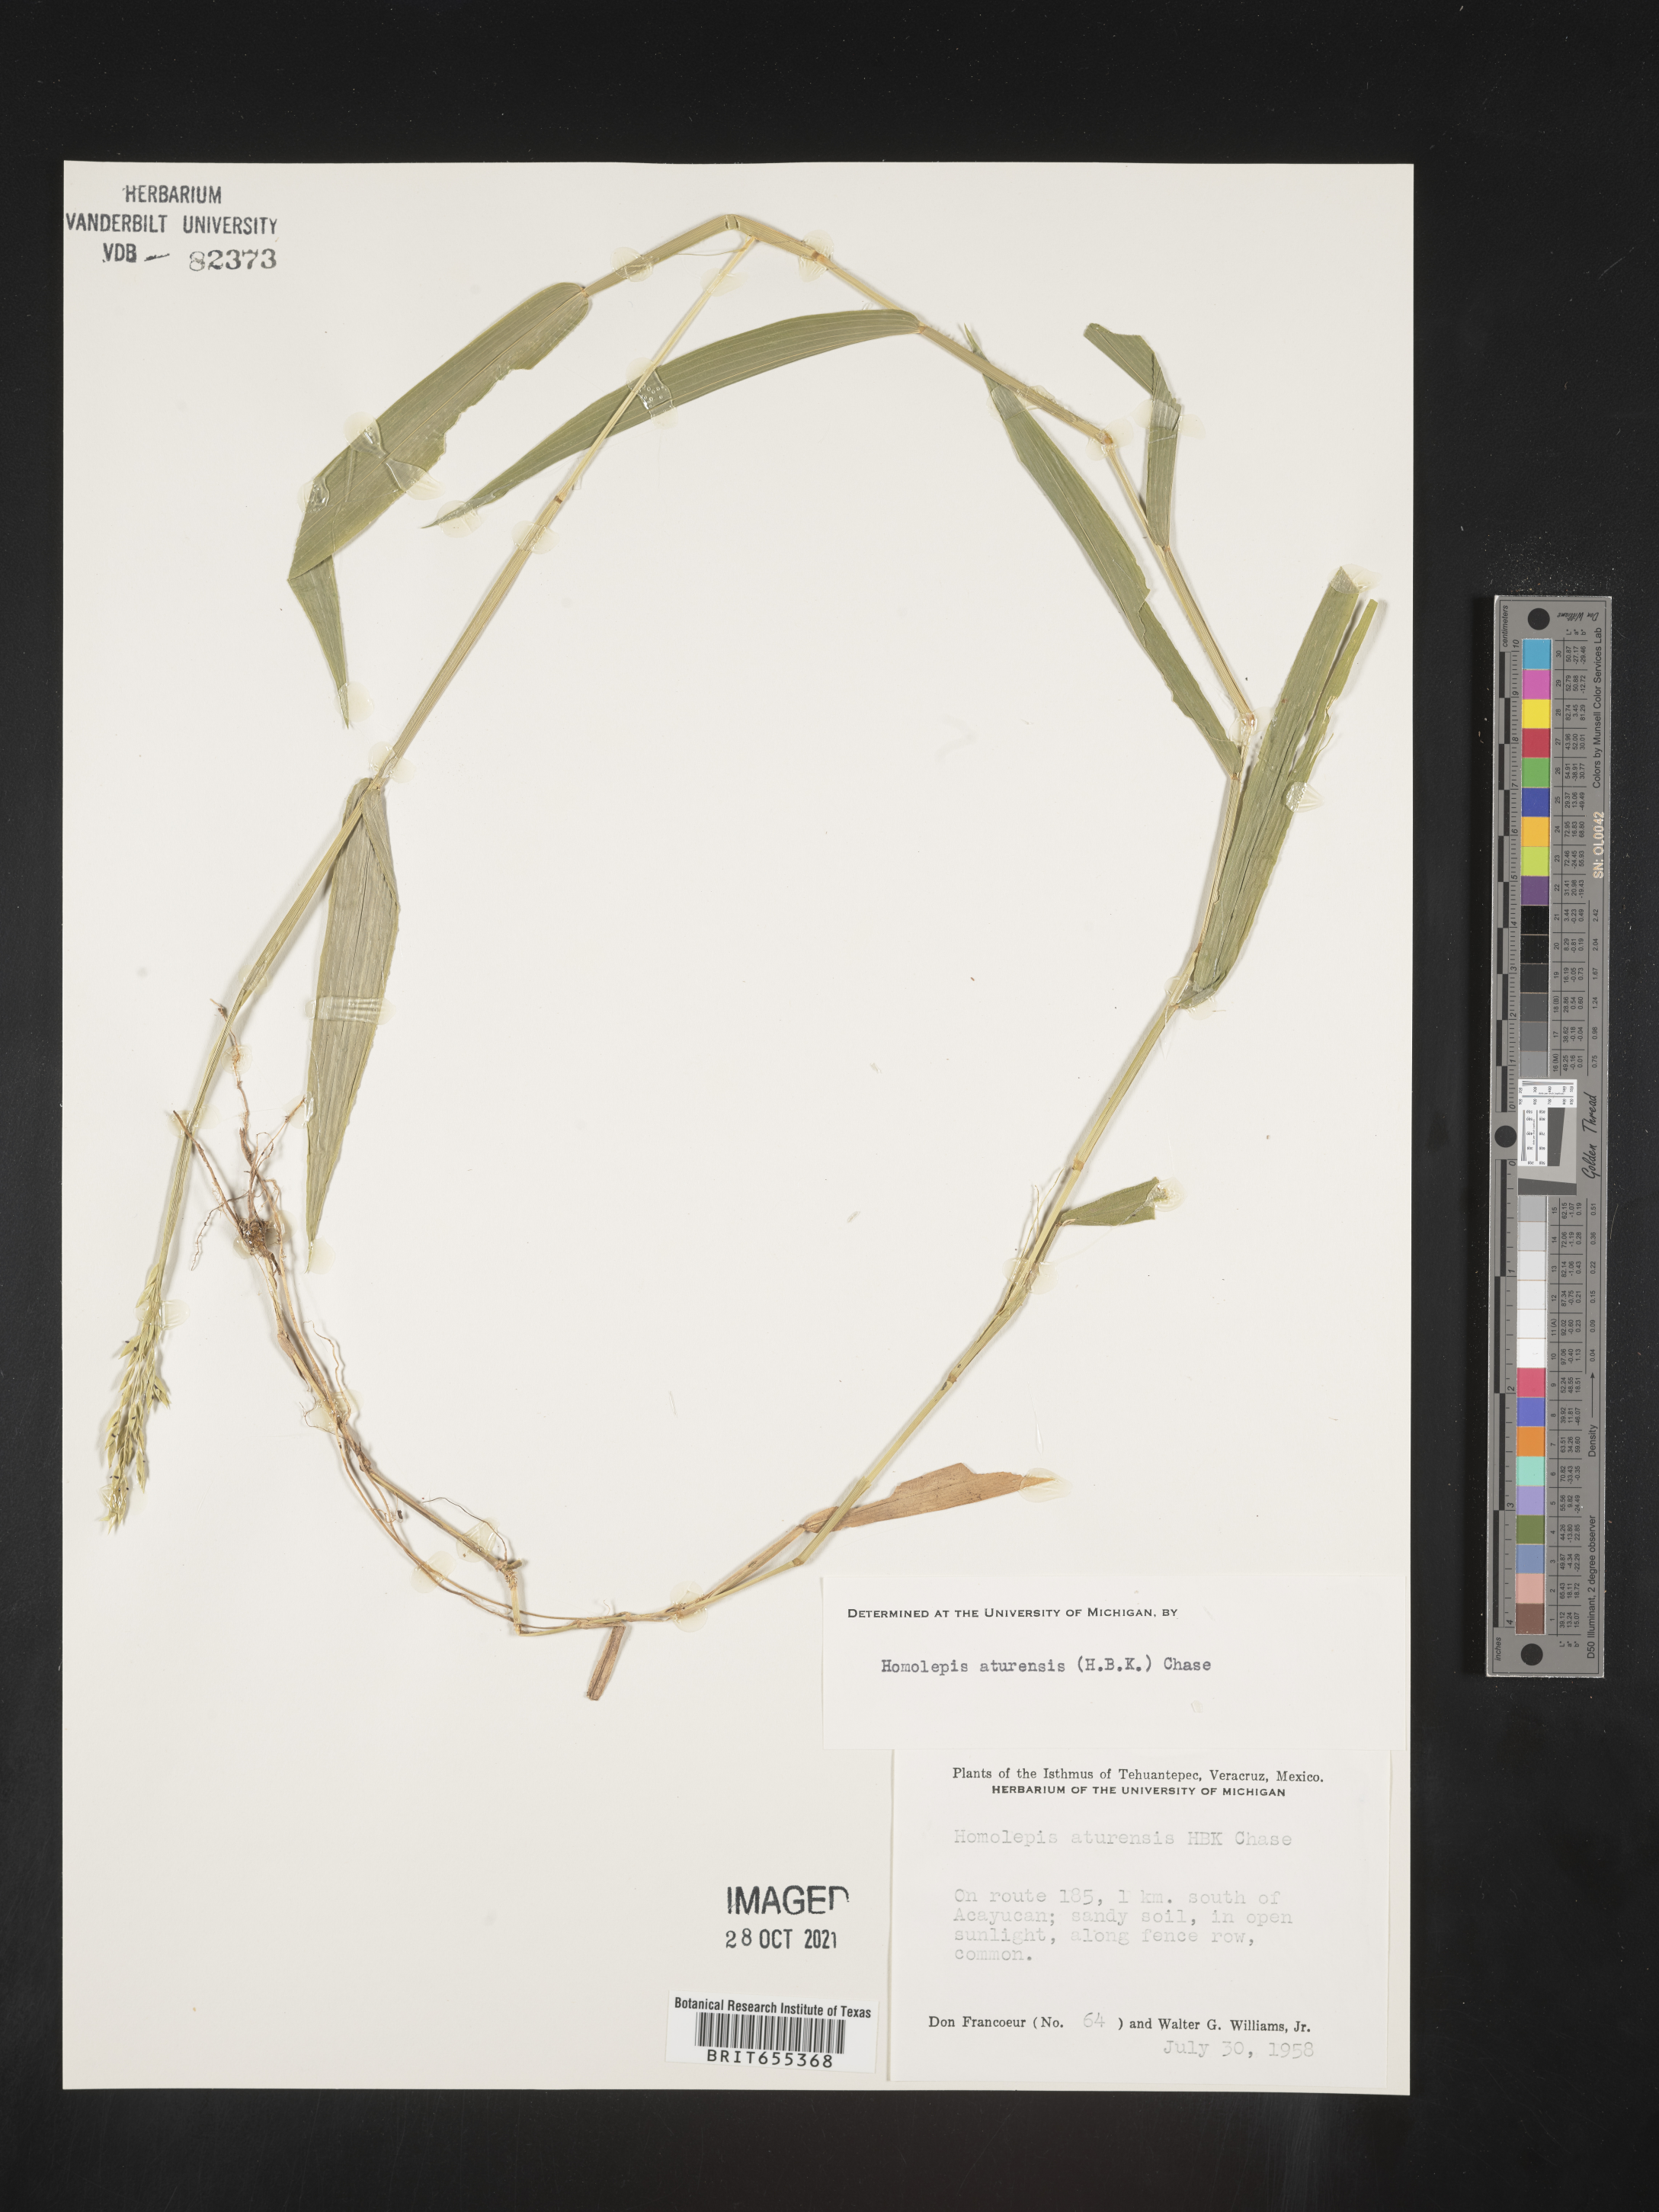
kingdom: Plantae
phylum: Tracheophyta
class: Liliopsida
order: Poales
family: Poaceae
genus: Homolepis
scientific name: Homolepis
